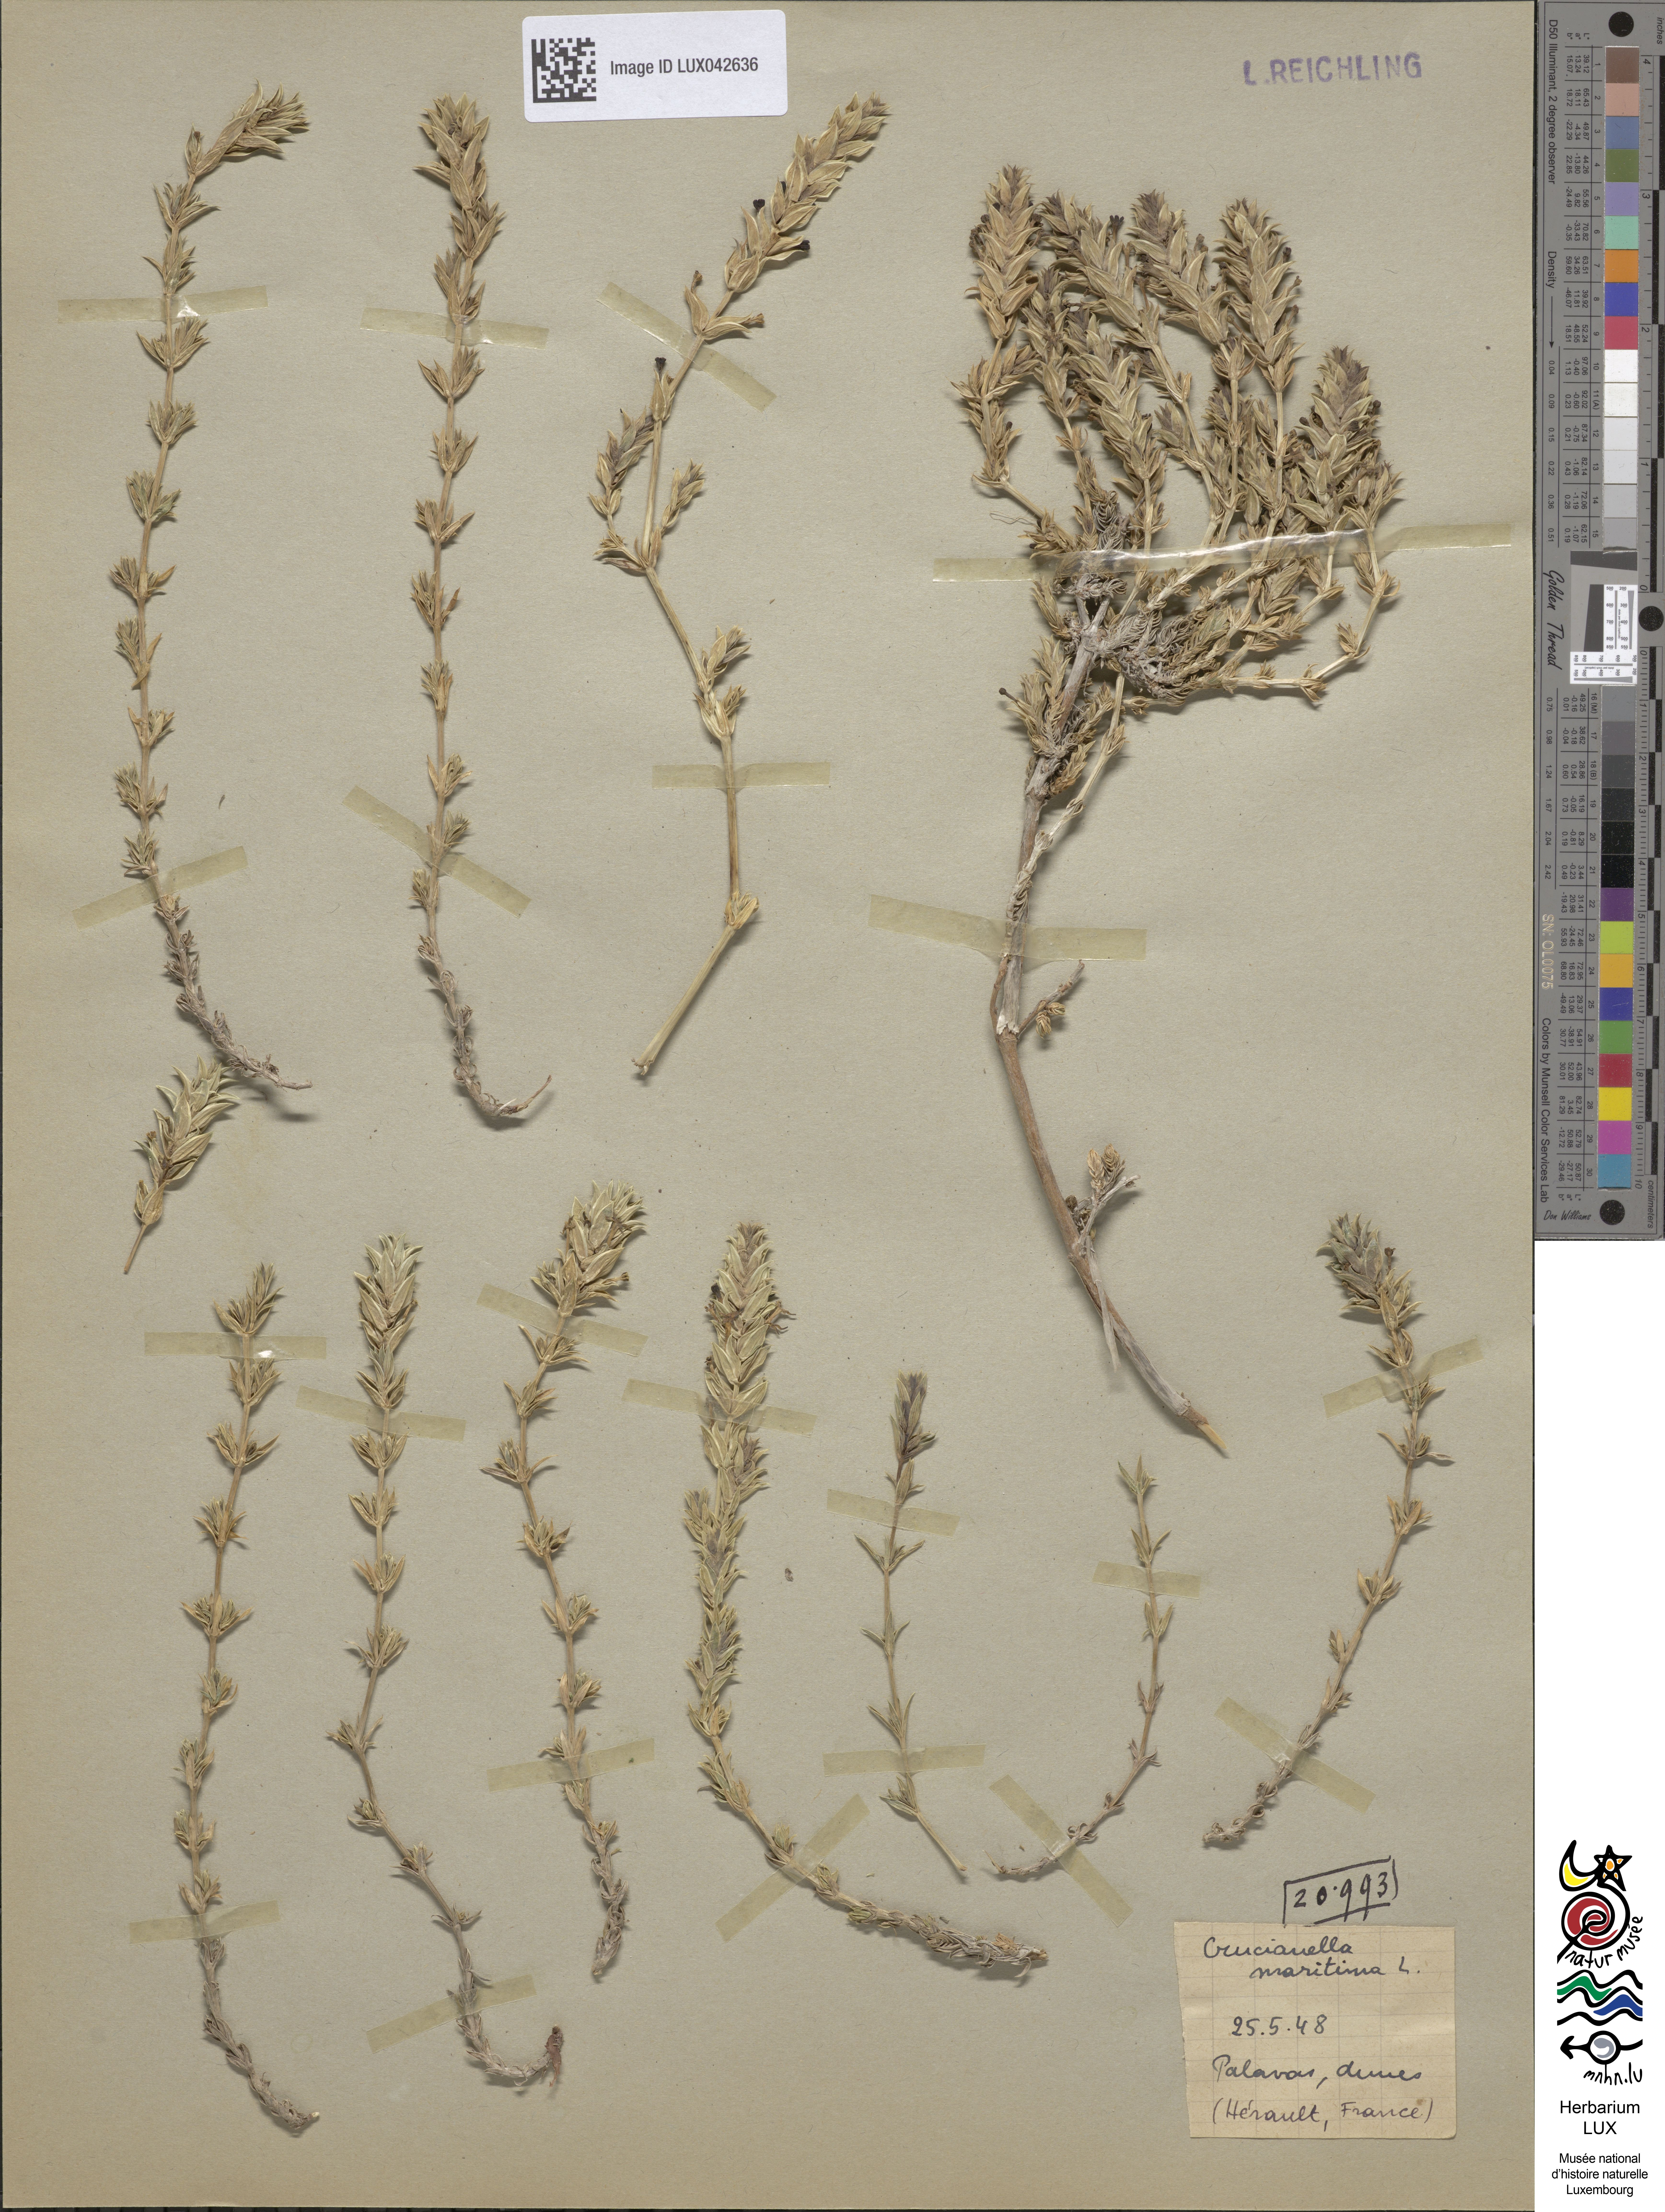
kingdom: Plantae
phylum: Tracheophyta
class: Magnoliopsida
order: Gentianales
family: Rubiaceae
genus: Crucianella
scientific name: Crucianella maritima
